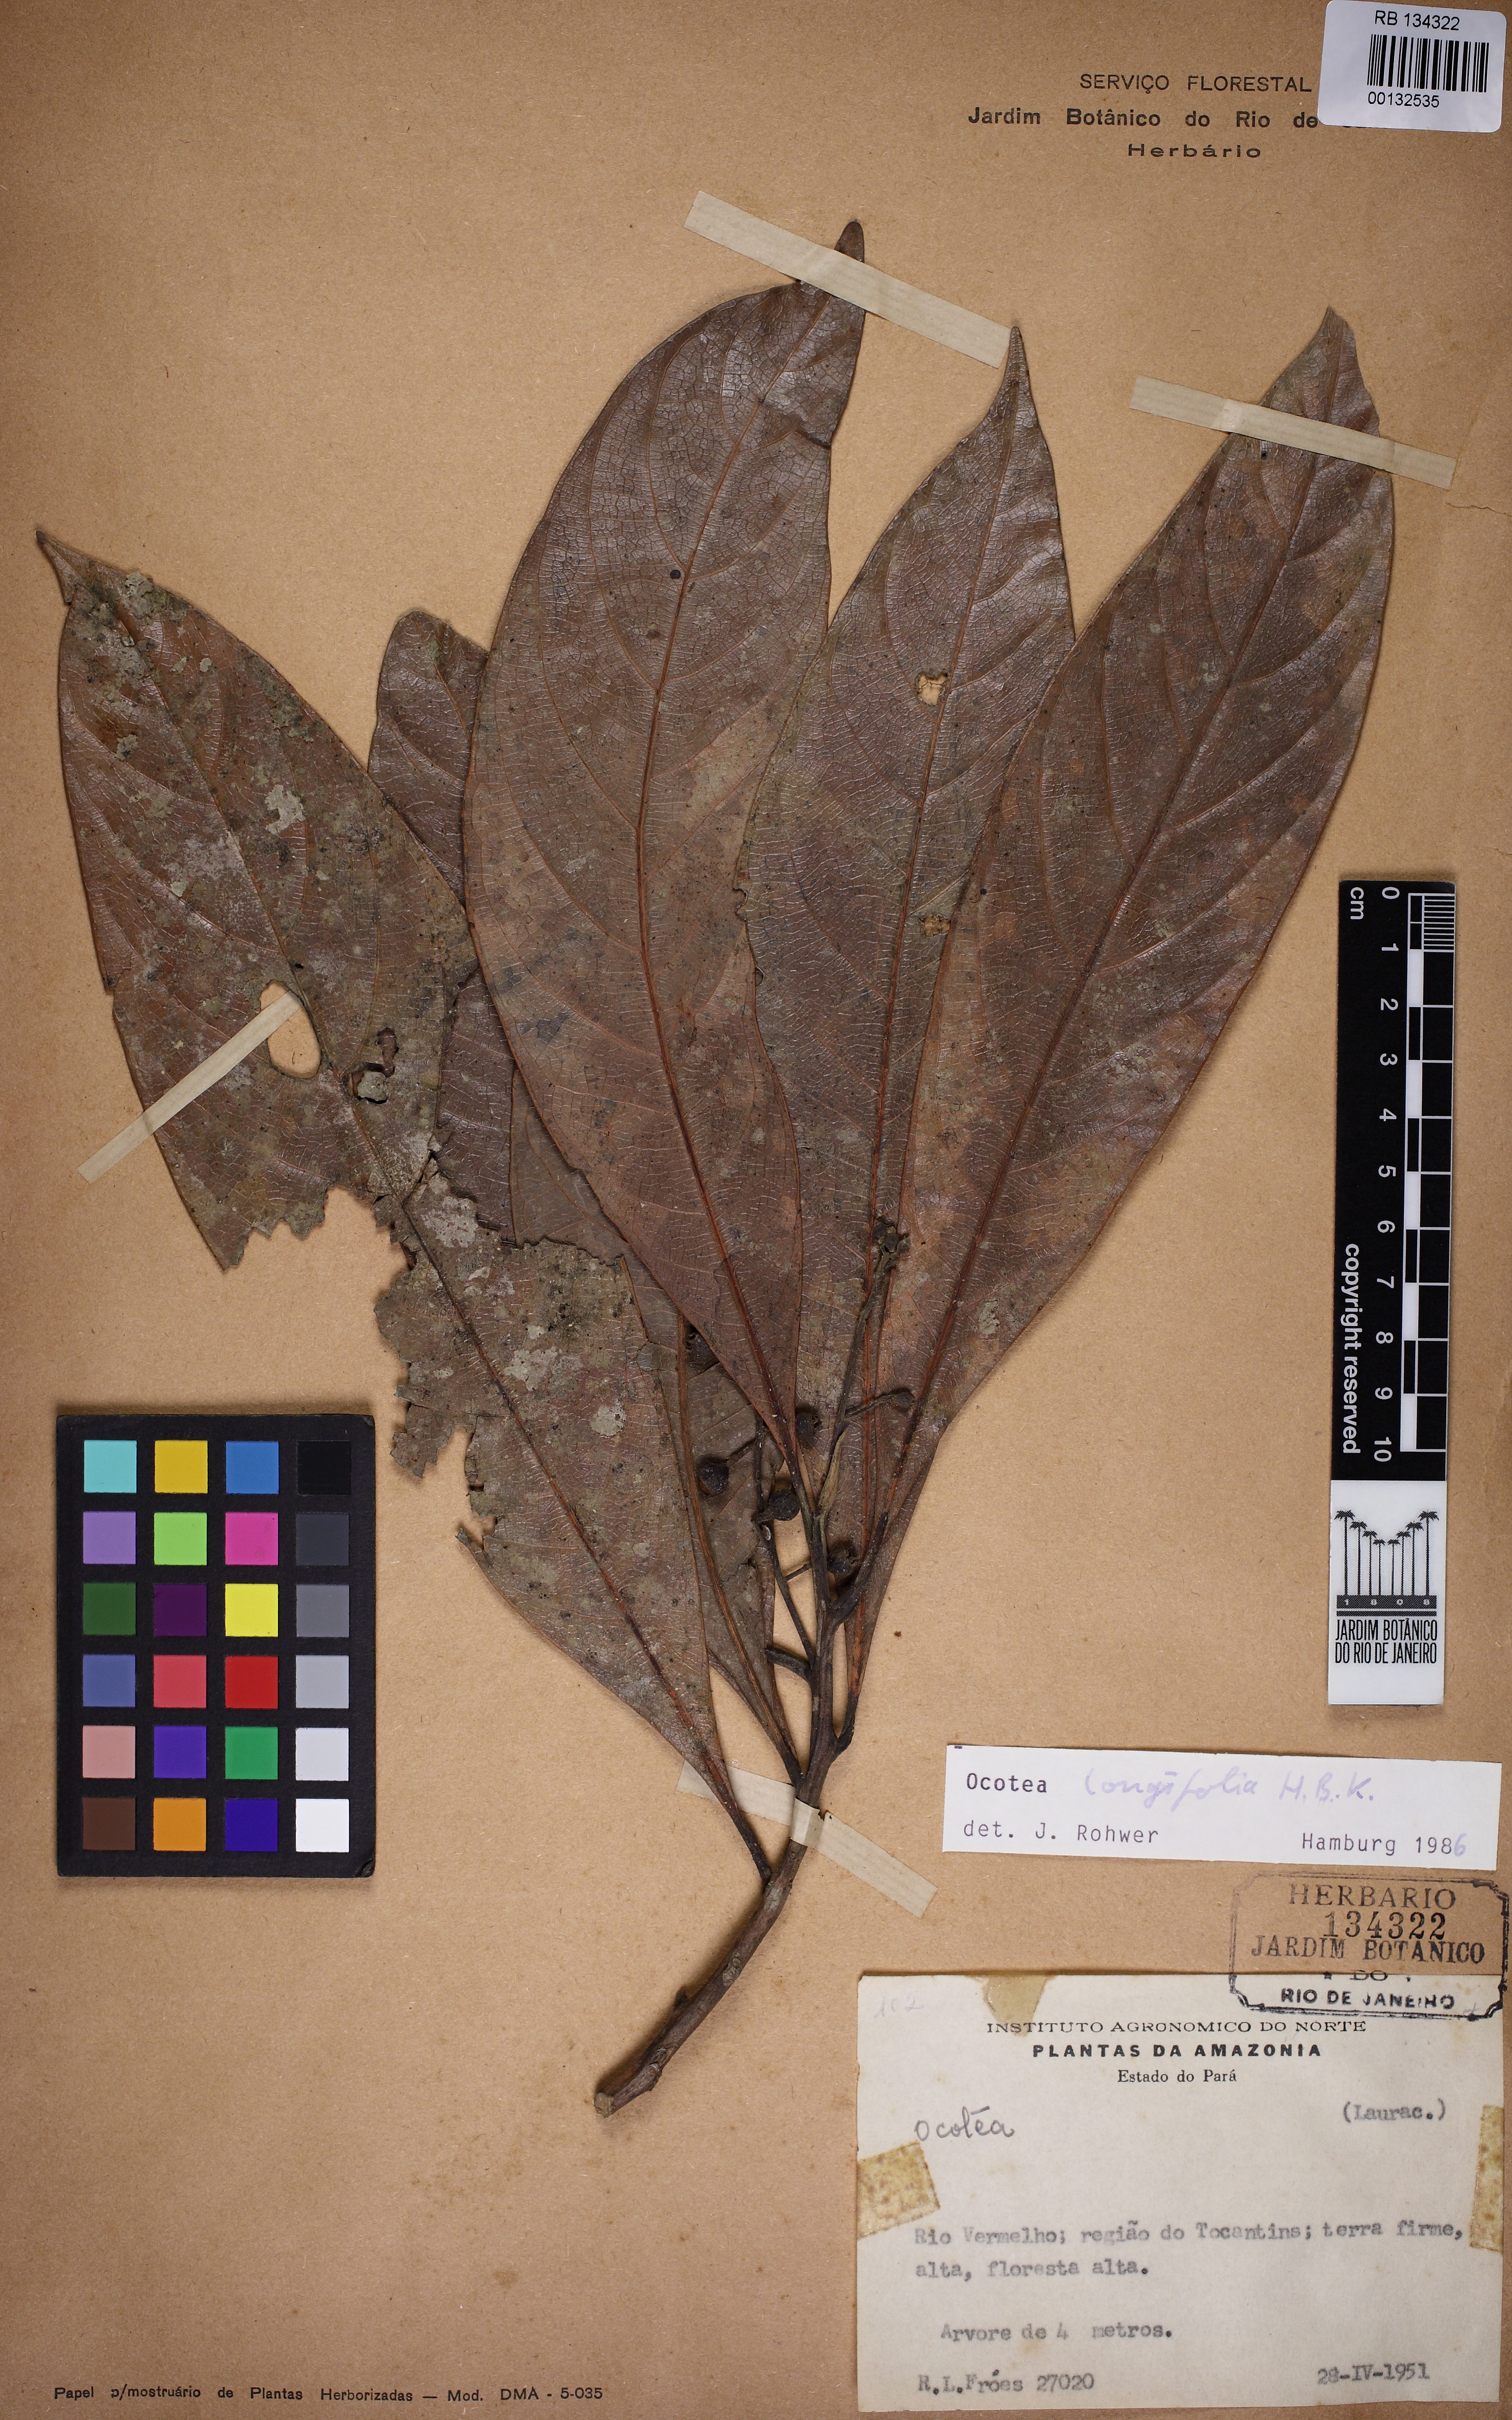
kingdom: Plantae
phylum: Tracheophyta
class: Magnoliopsida
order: Laurales
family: Lauraceae
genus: Mespilodaphne
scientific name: Mespilodaphne opifera
